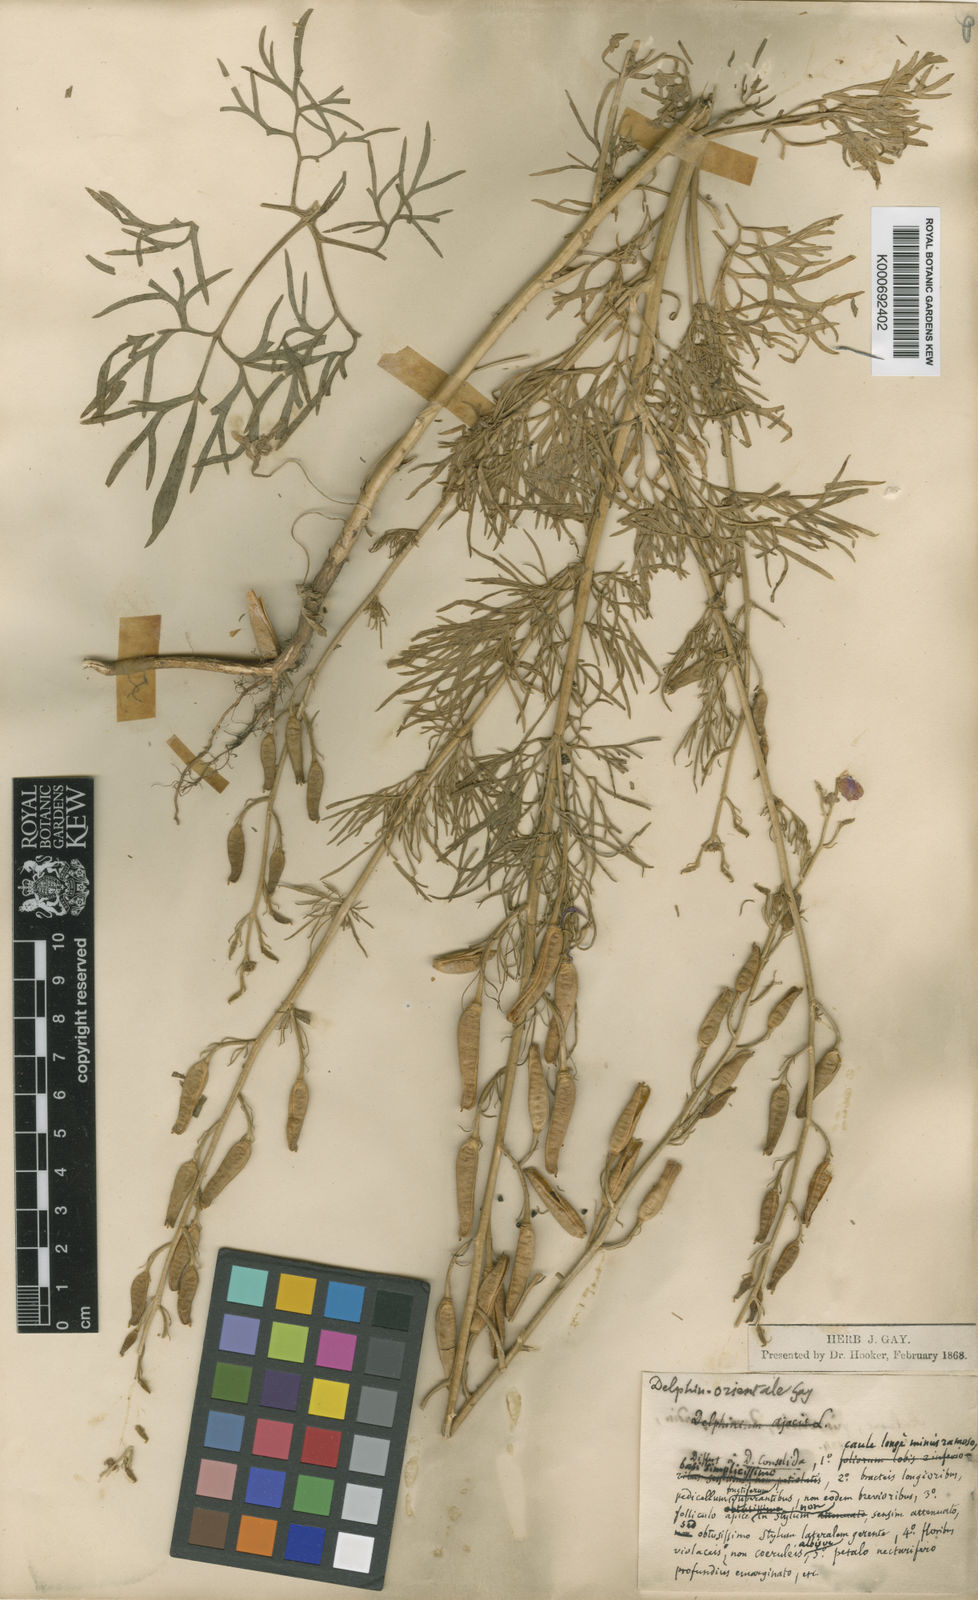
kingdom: Plantae
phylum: Tracheophyta
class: Magnoliopsida
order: Ranunculales
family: Ranunculaceae
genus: Delphinium
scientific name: Delphinium
